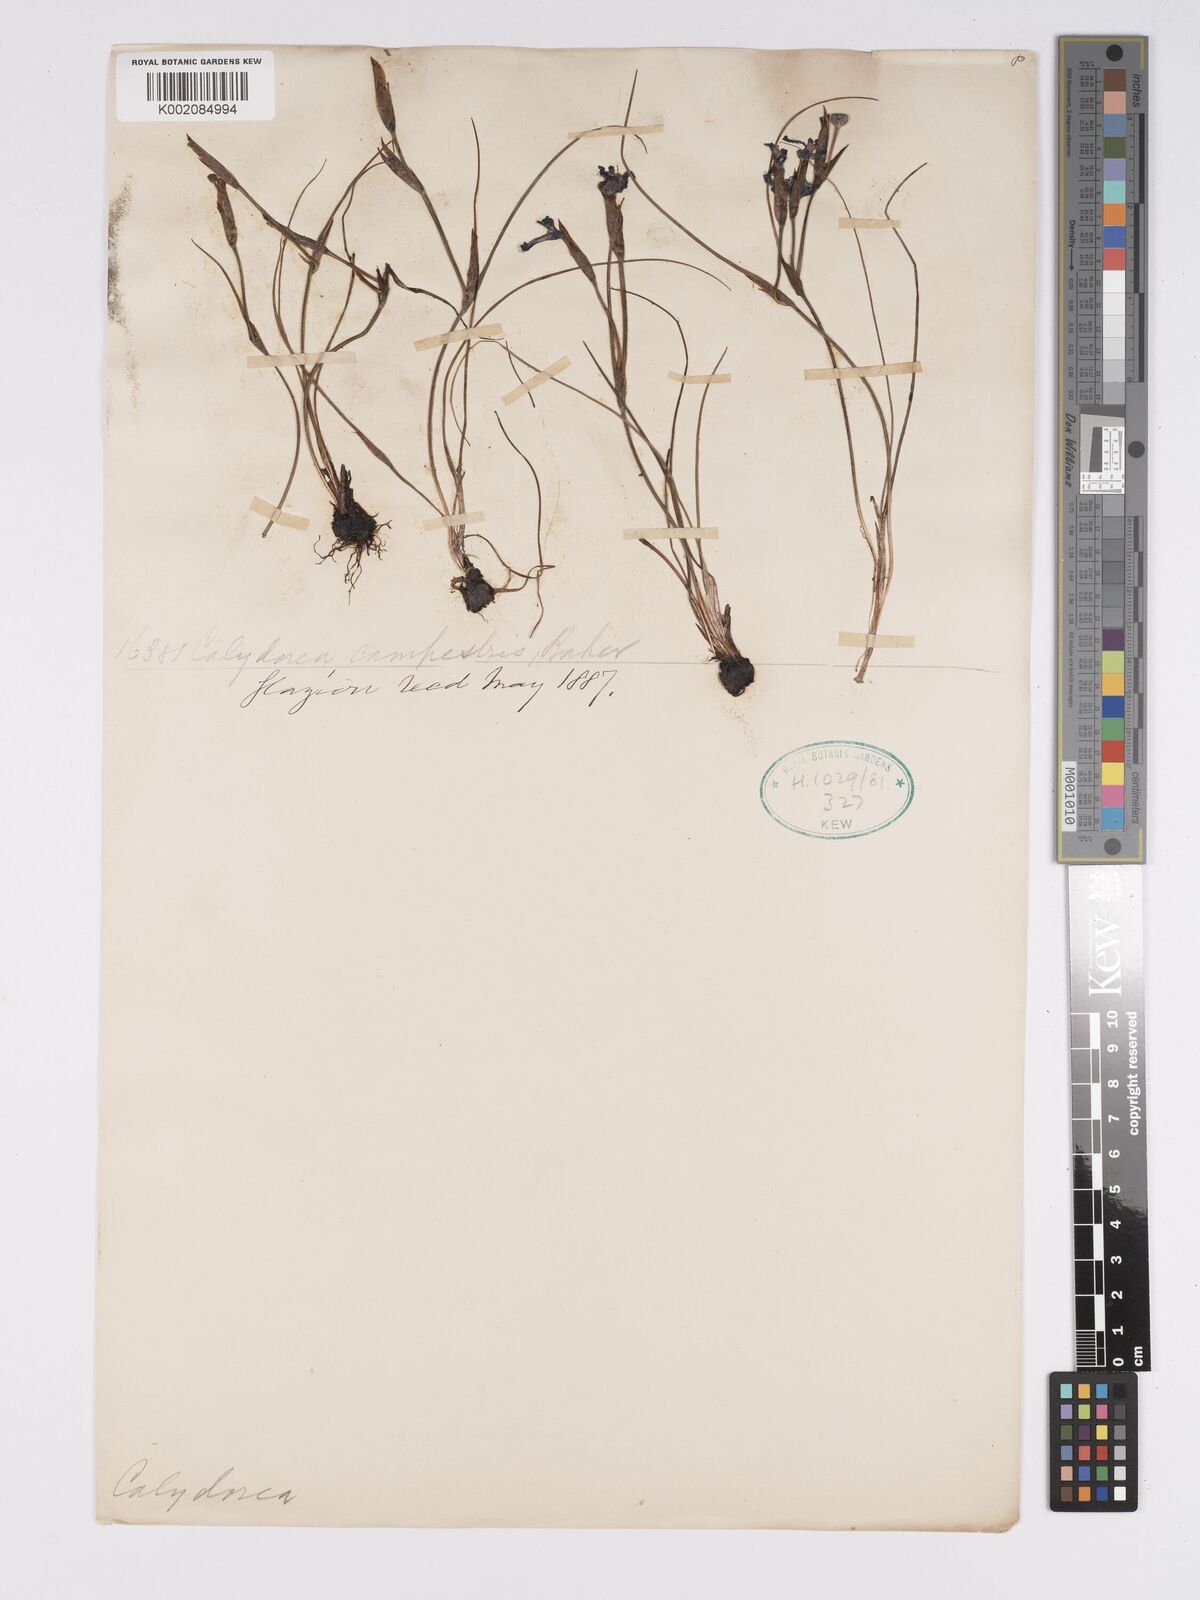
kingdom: Plantae
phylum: Tracheophyta
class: Liliopsida
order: Asparagales
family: Iridaceae
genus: Calydorea
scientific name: Calydorea campestris
